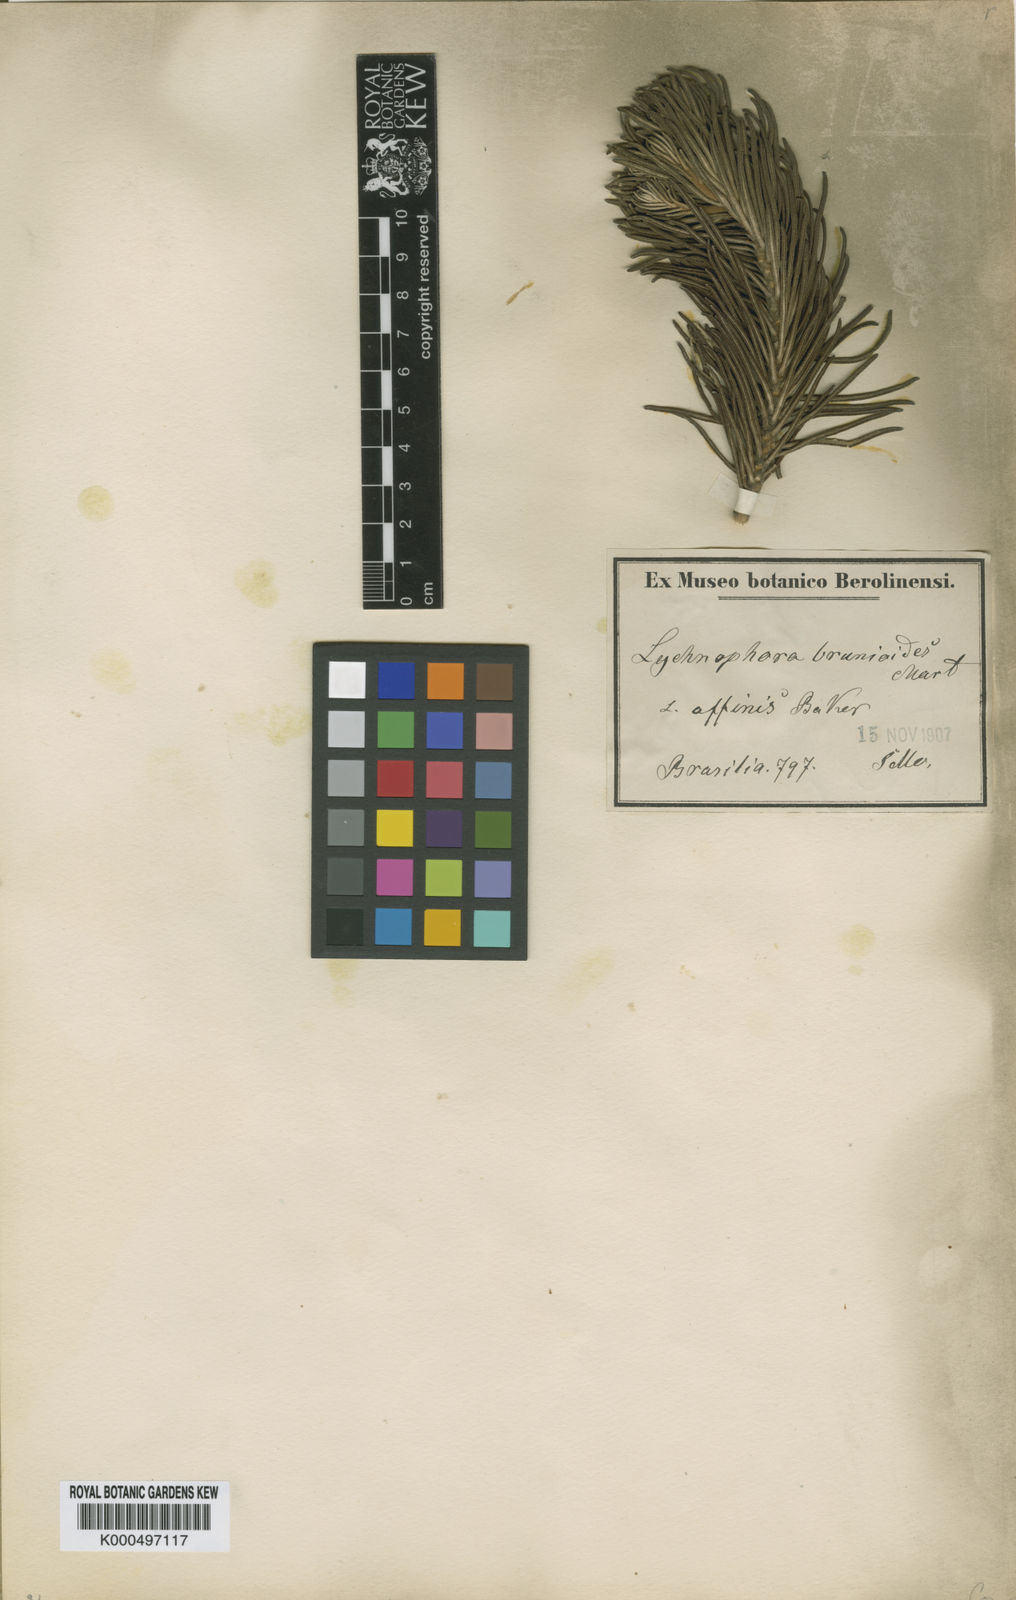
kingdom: Plantae
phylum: Tracheophyta
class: Magnoliopsida
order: Asterales
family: Asteraceae
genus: Lychnophora
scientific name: Lychnophora ericoides
